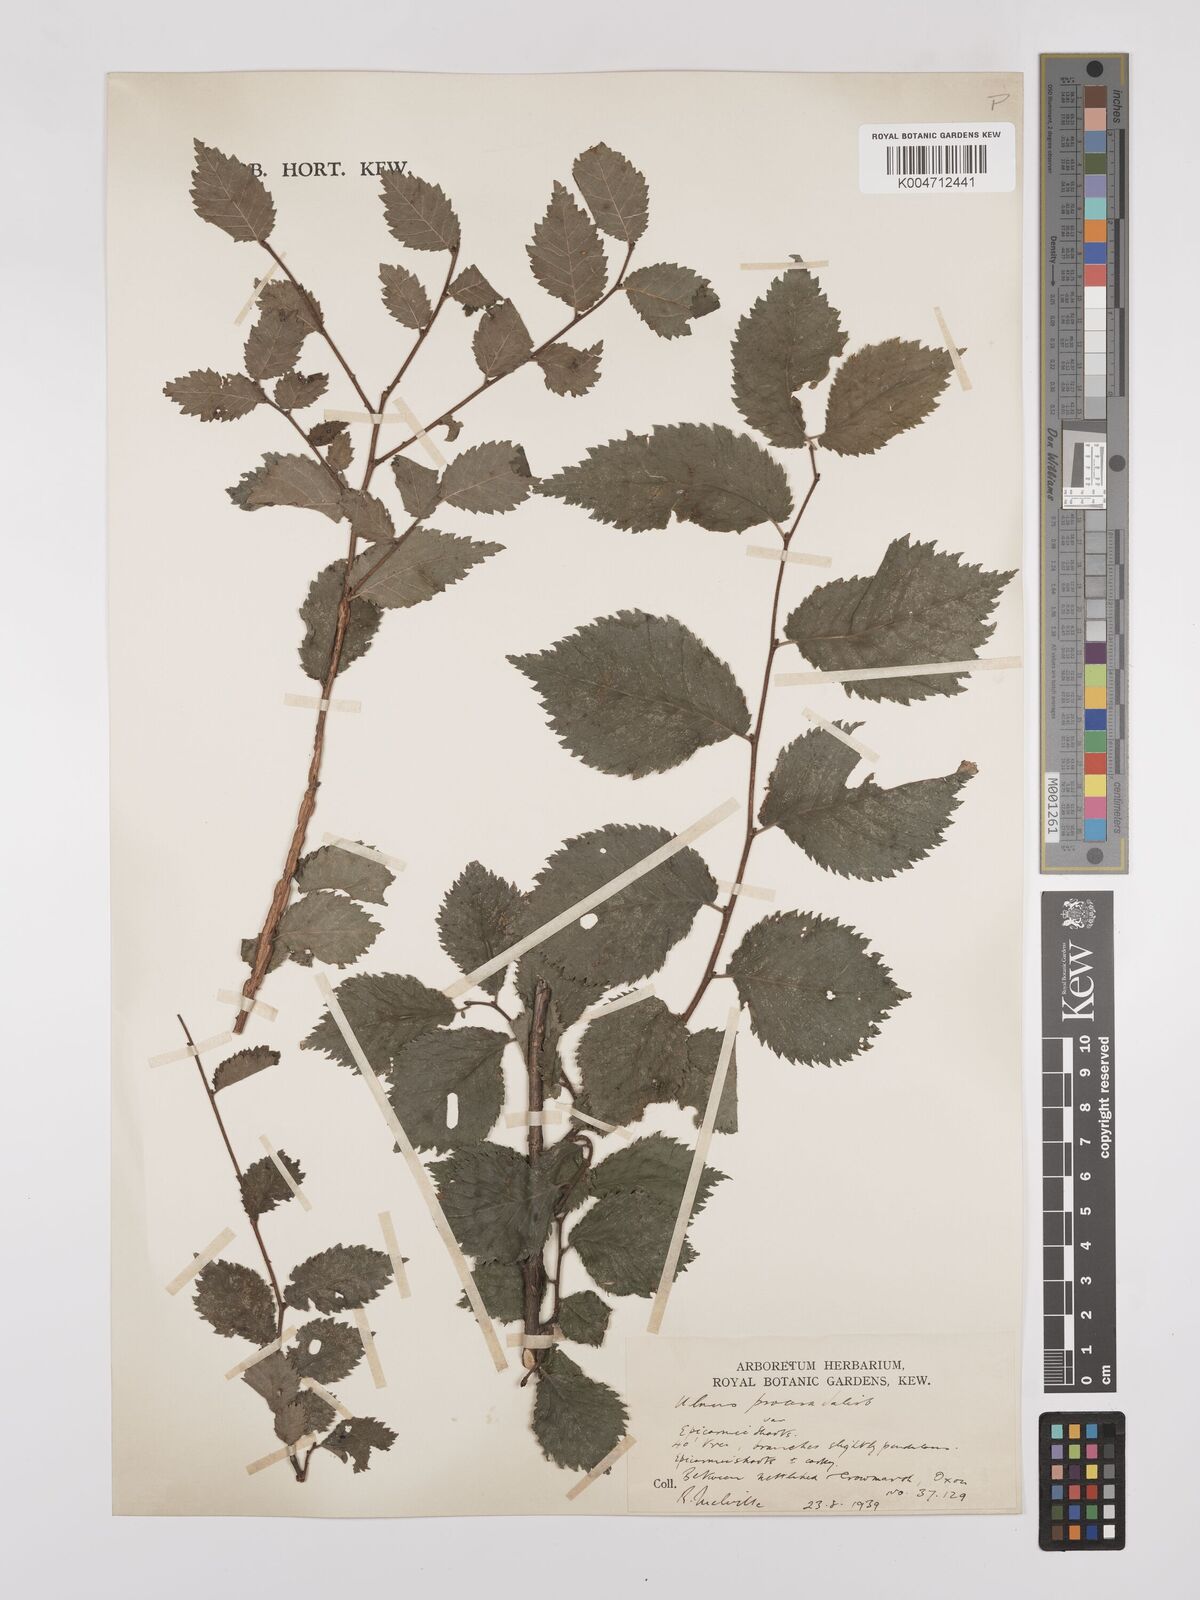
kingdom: Plantae
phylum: Tracheophyta
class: Magnoliopsida
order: Rosales
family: Ulmaceae
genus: Ulmus
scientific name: Ulmus minor
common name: Small-leaved elm
